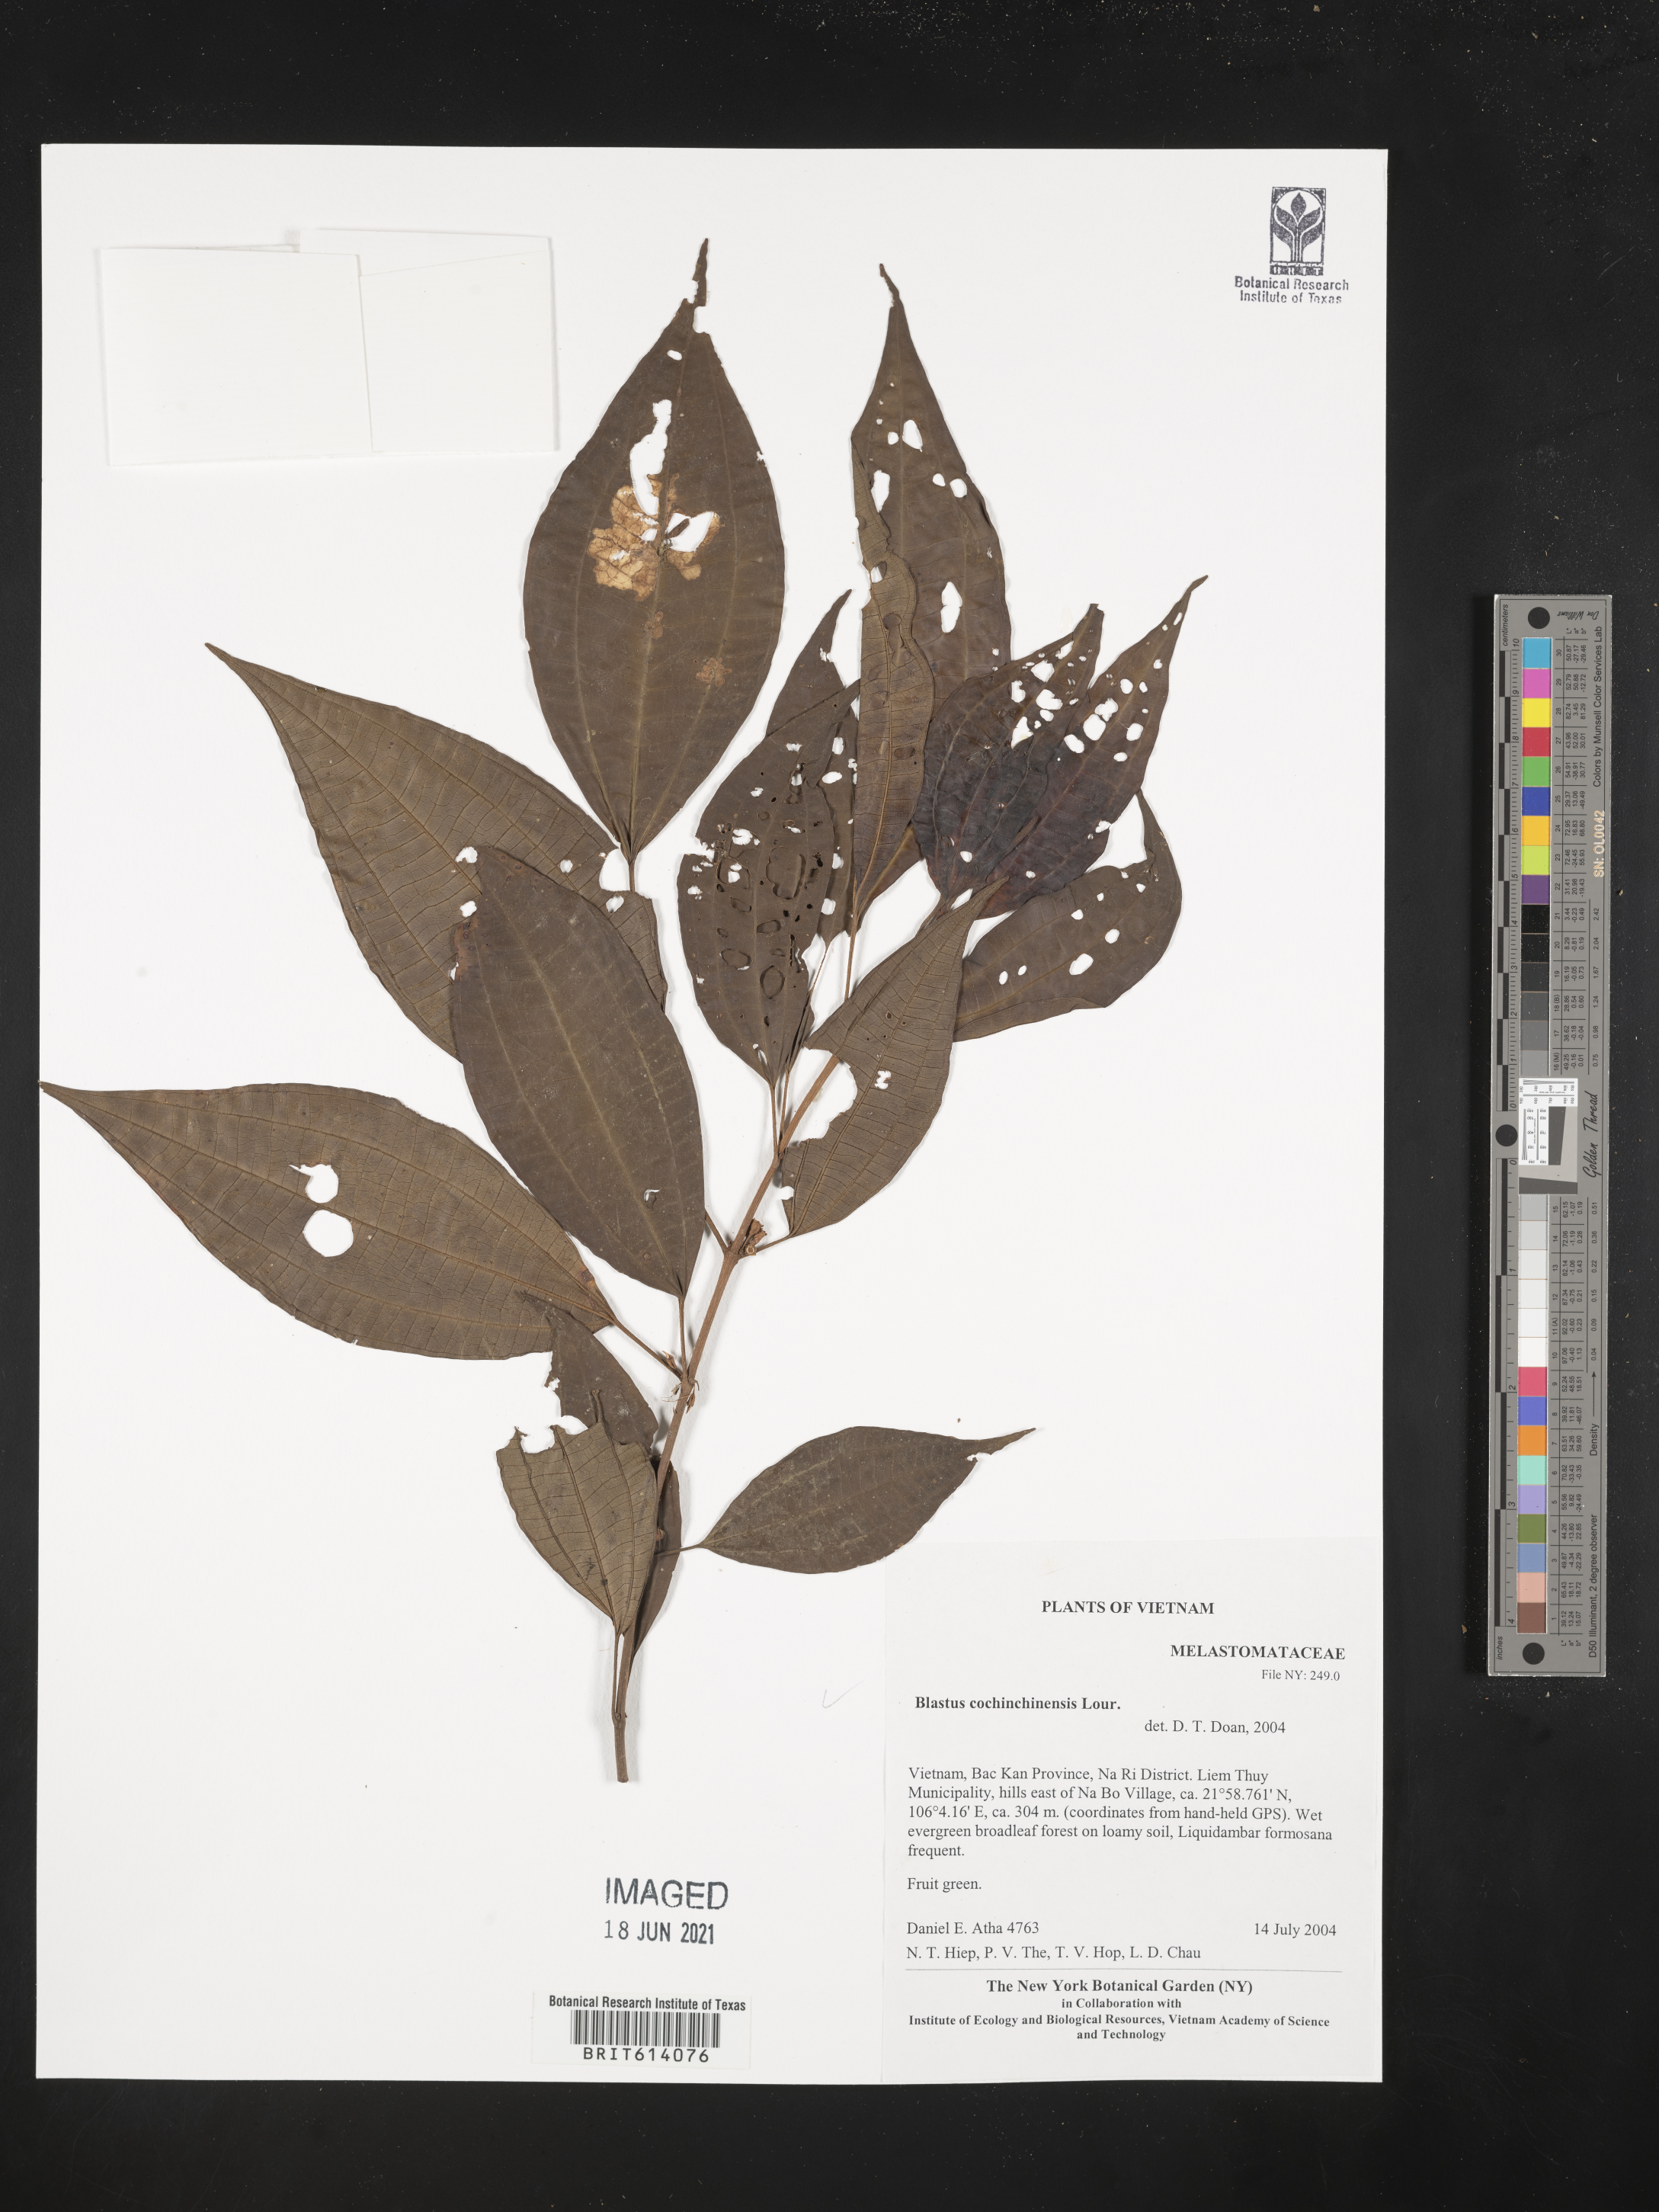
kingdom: Plantae
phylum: Tracheophyta
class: Magnoliopsida
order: Myrtales
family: Melastomataceae
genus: Blastus
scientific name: Blastus cochinchinensis
